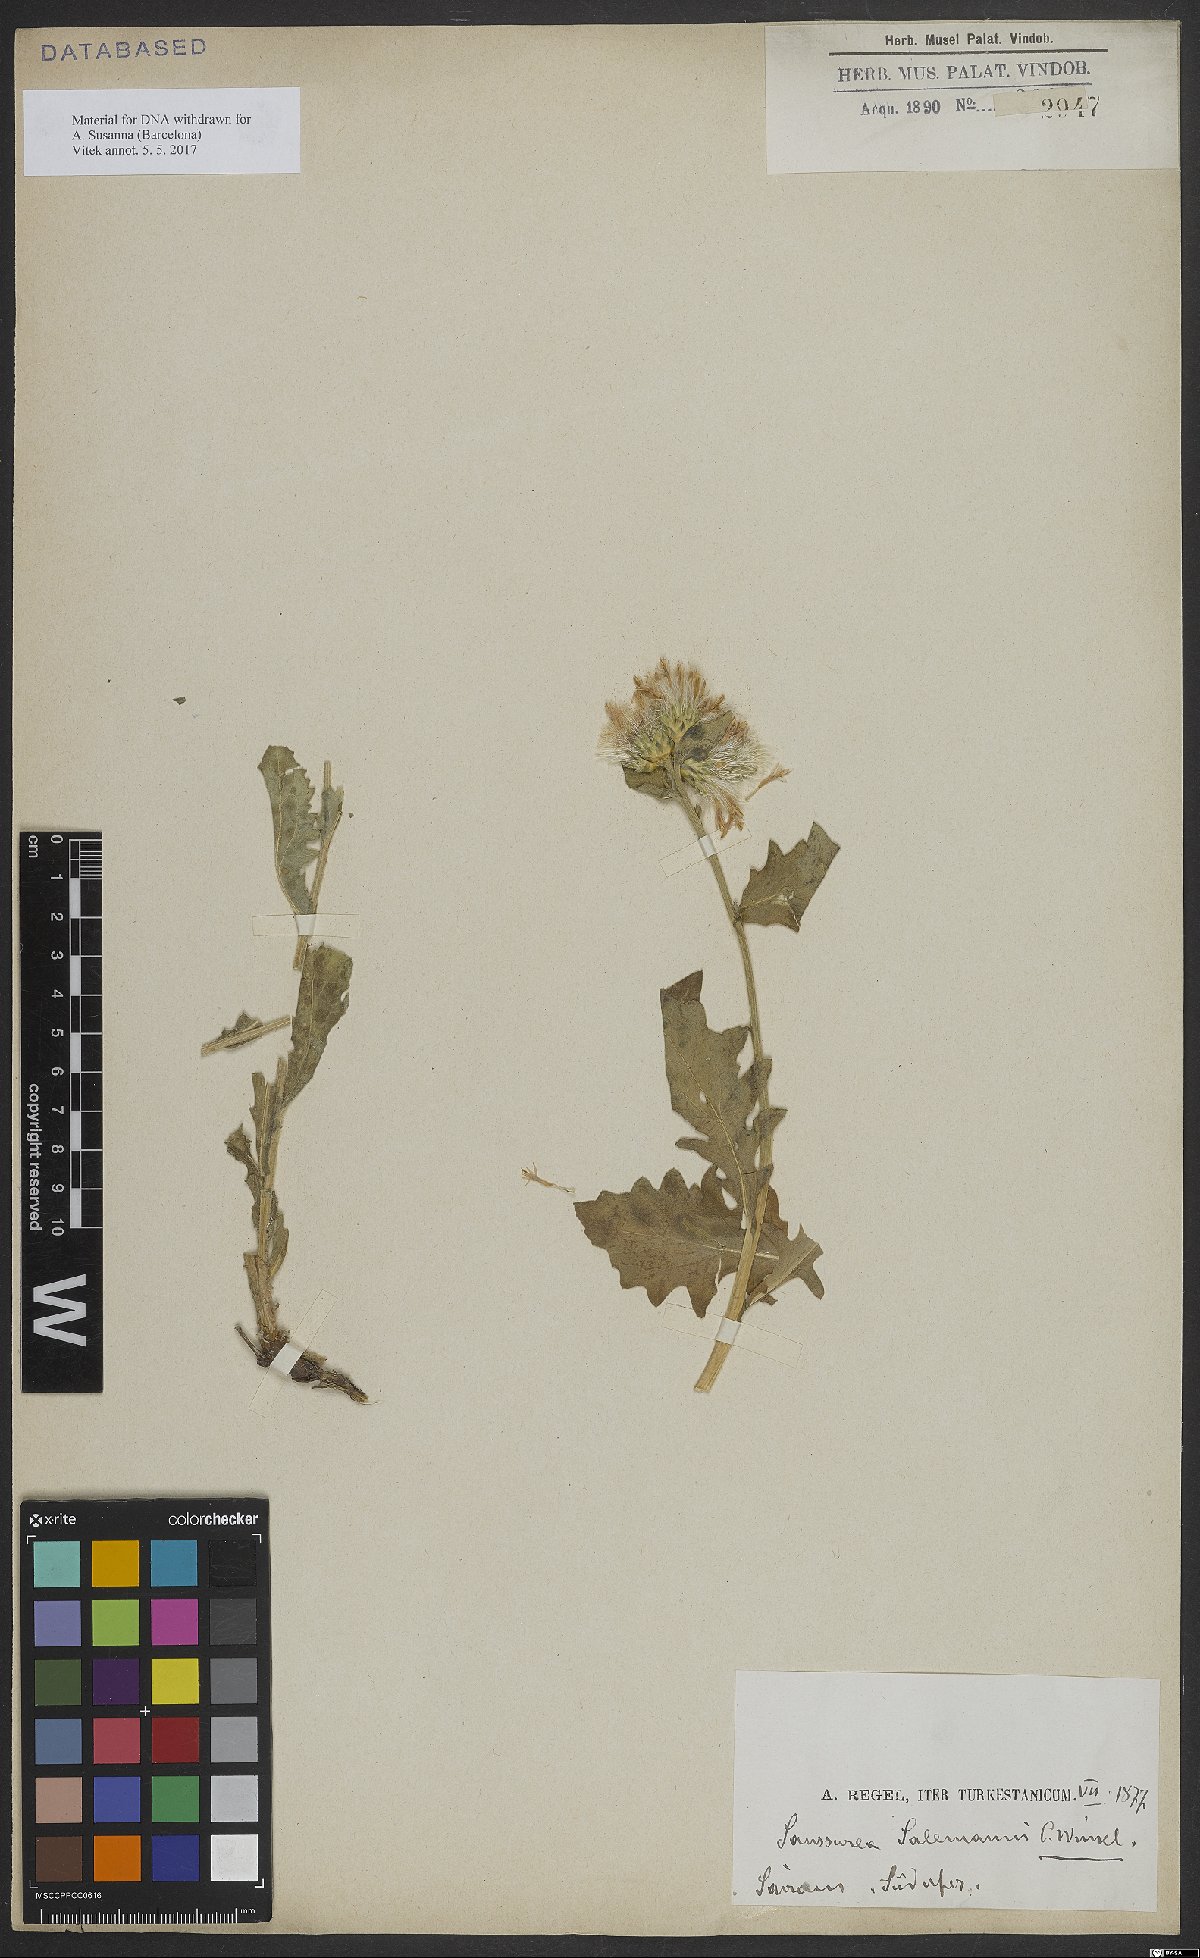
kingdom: Plantae
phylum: Tracheophyta
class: Magnoliopsida
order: Asterales
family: Asteraceae
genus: Saussurea
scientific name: Saussurea salemannii
